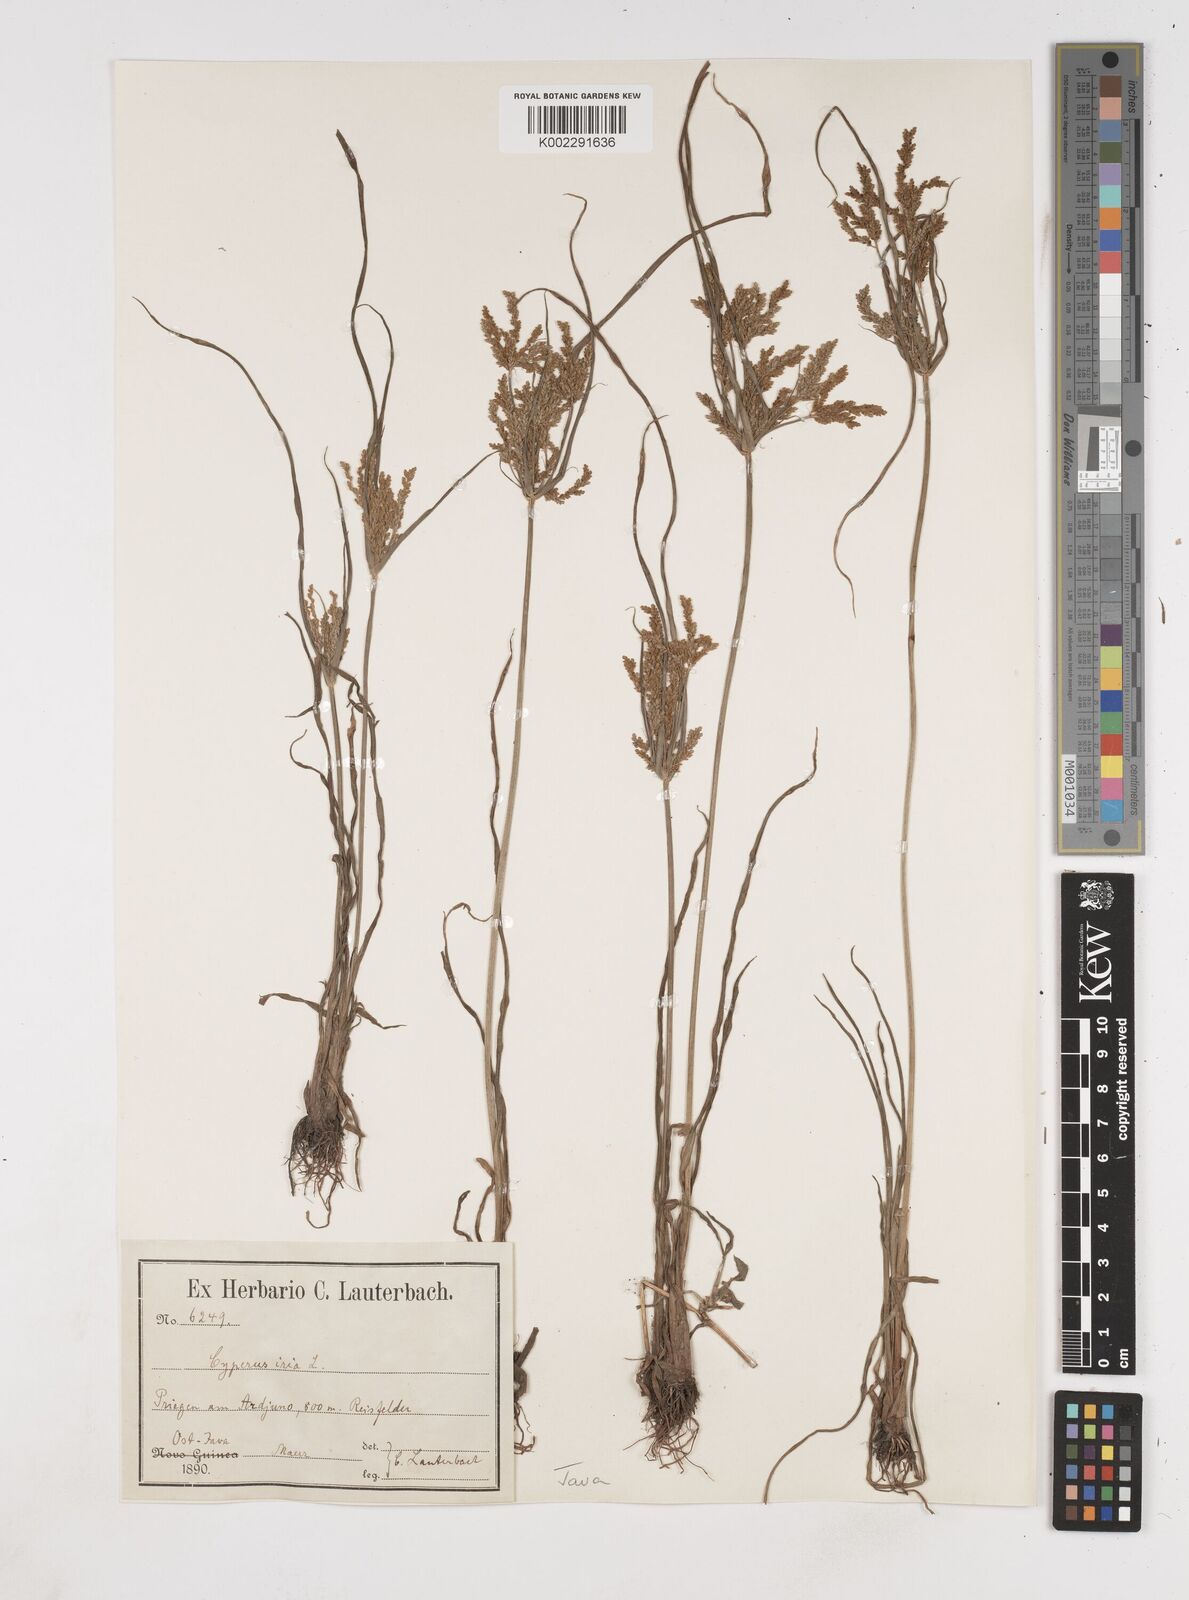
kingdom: Plantae
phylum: Tracheophyta
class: Liliopsida
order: Poales
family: Cyperaceae
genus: Cyperus
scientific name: Cyperus iria
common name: Ricefield flatsedge
